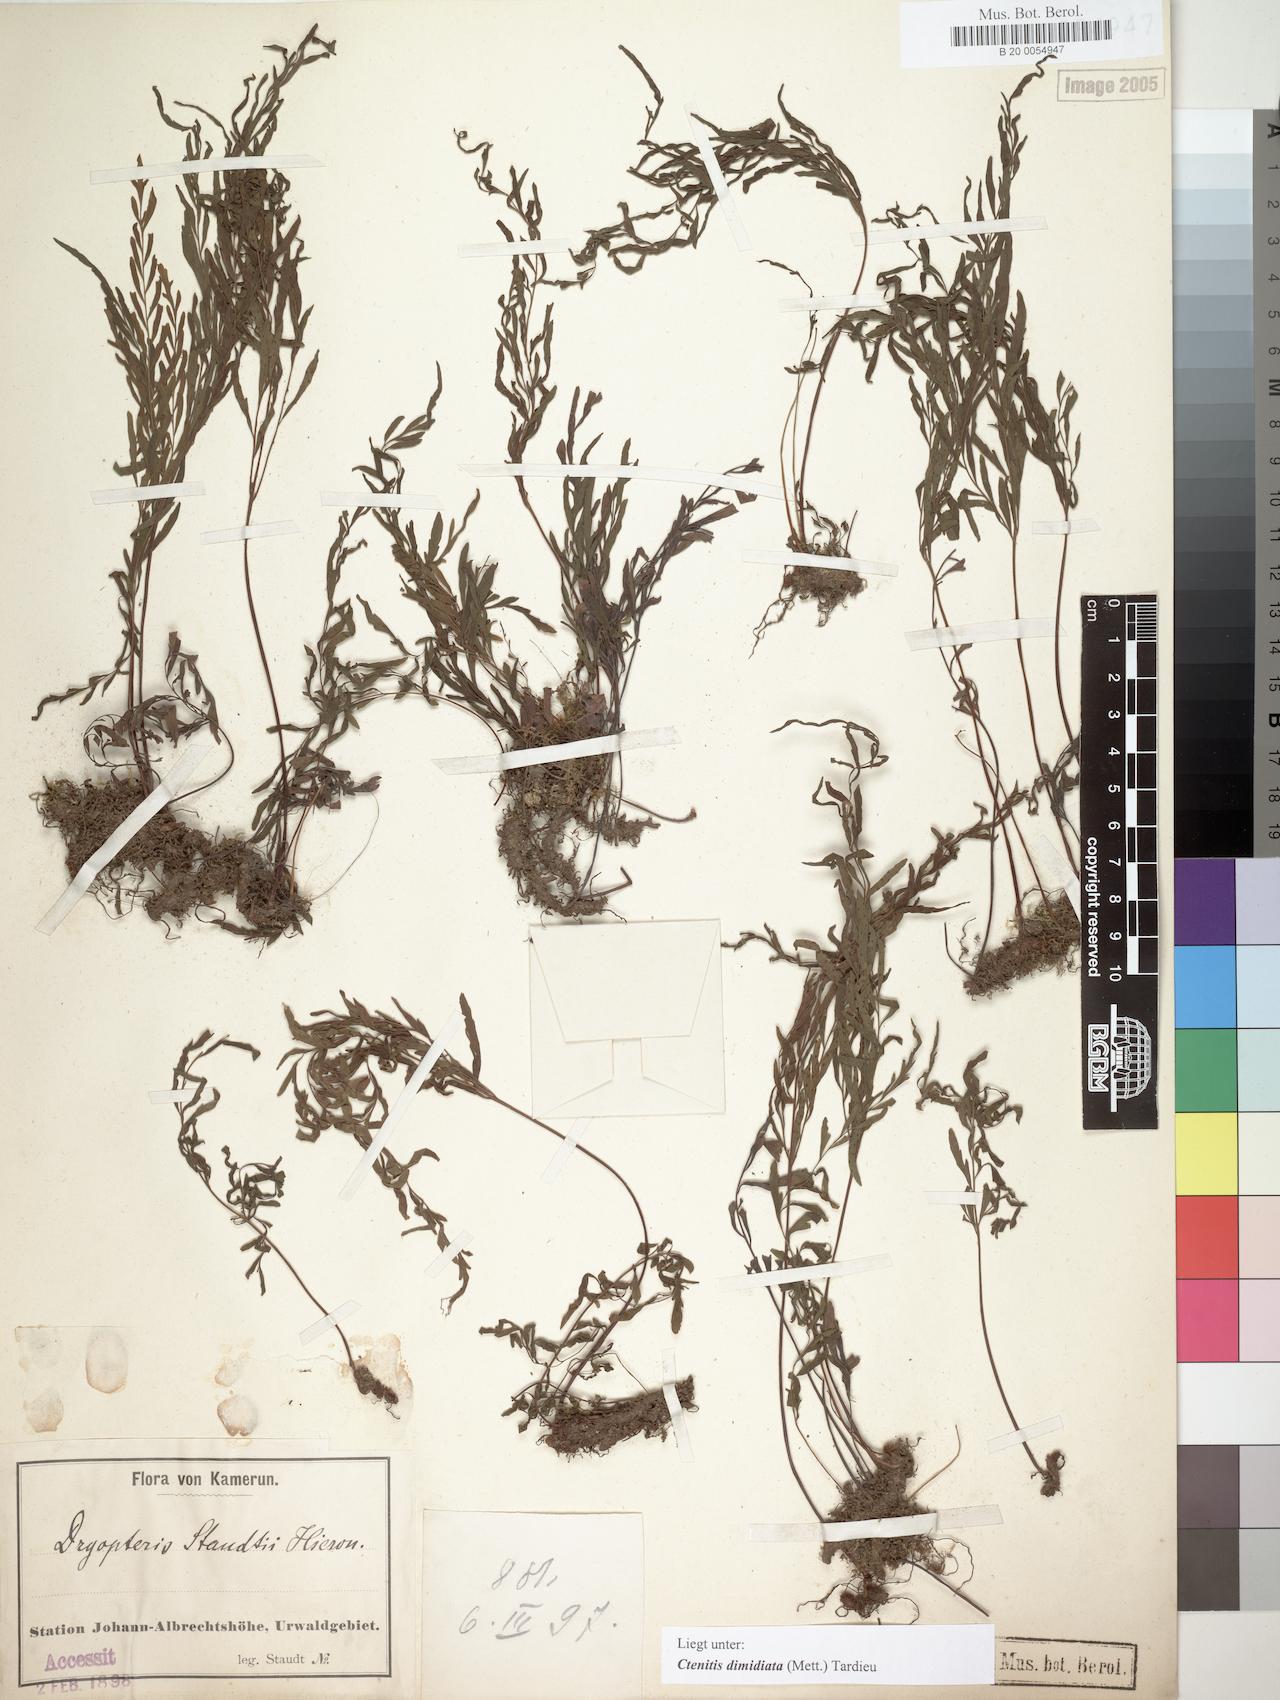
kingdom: Plantae
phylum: Tracheophyta
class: Polypodiopsida
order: Polypodiales
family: Tectariaceae
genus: Triplophyllum
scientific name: Triplophyllum dimidiatum
